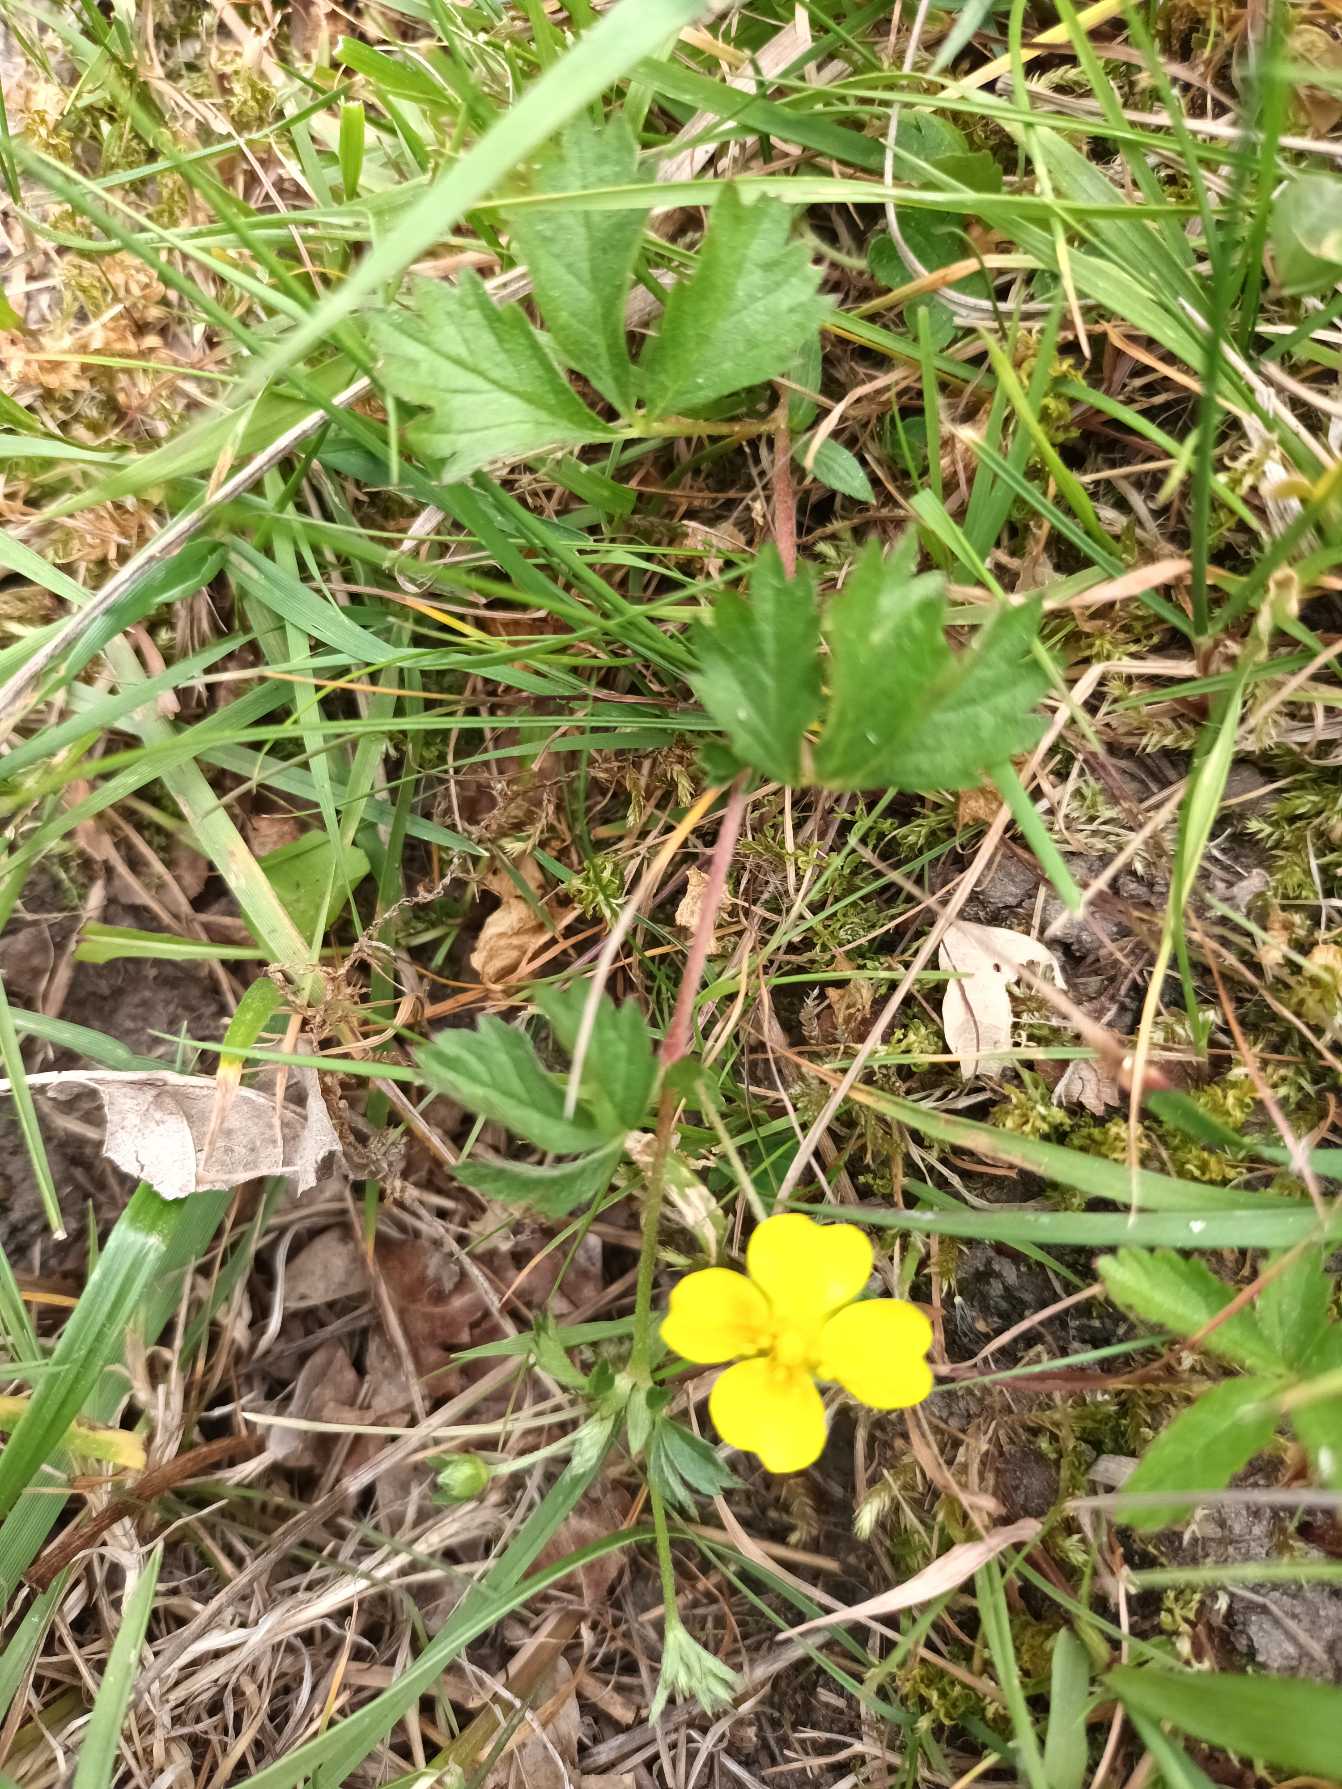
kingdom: Plantae
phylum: Tracheophyta
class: Magnoliopsida
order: Rosales
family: Rosaceae
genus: Potentilla
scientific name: Potentilla anglica
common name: Liggende potentil
